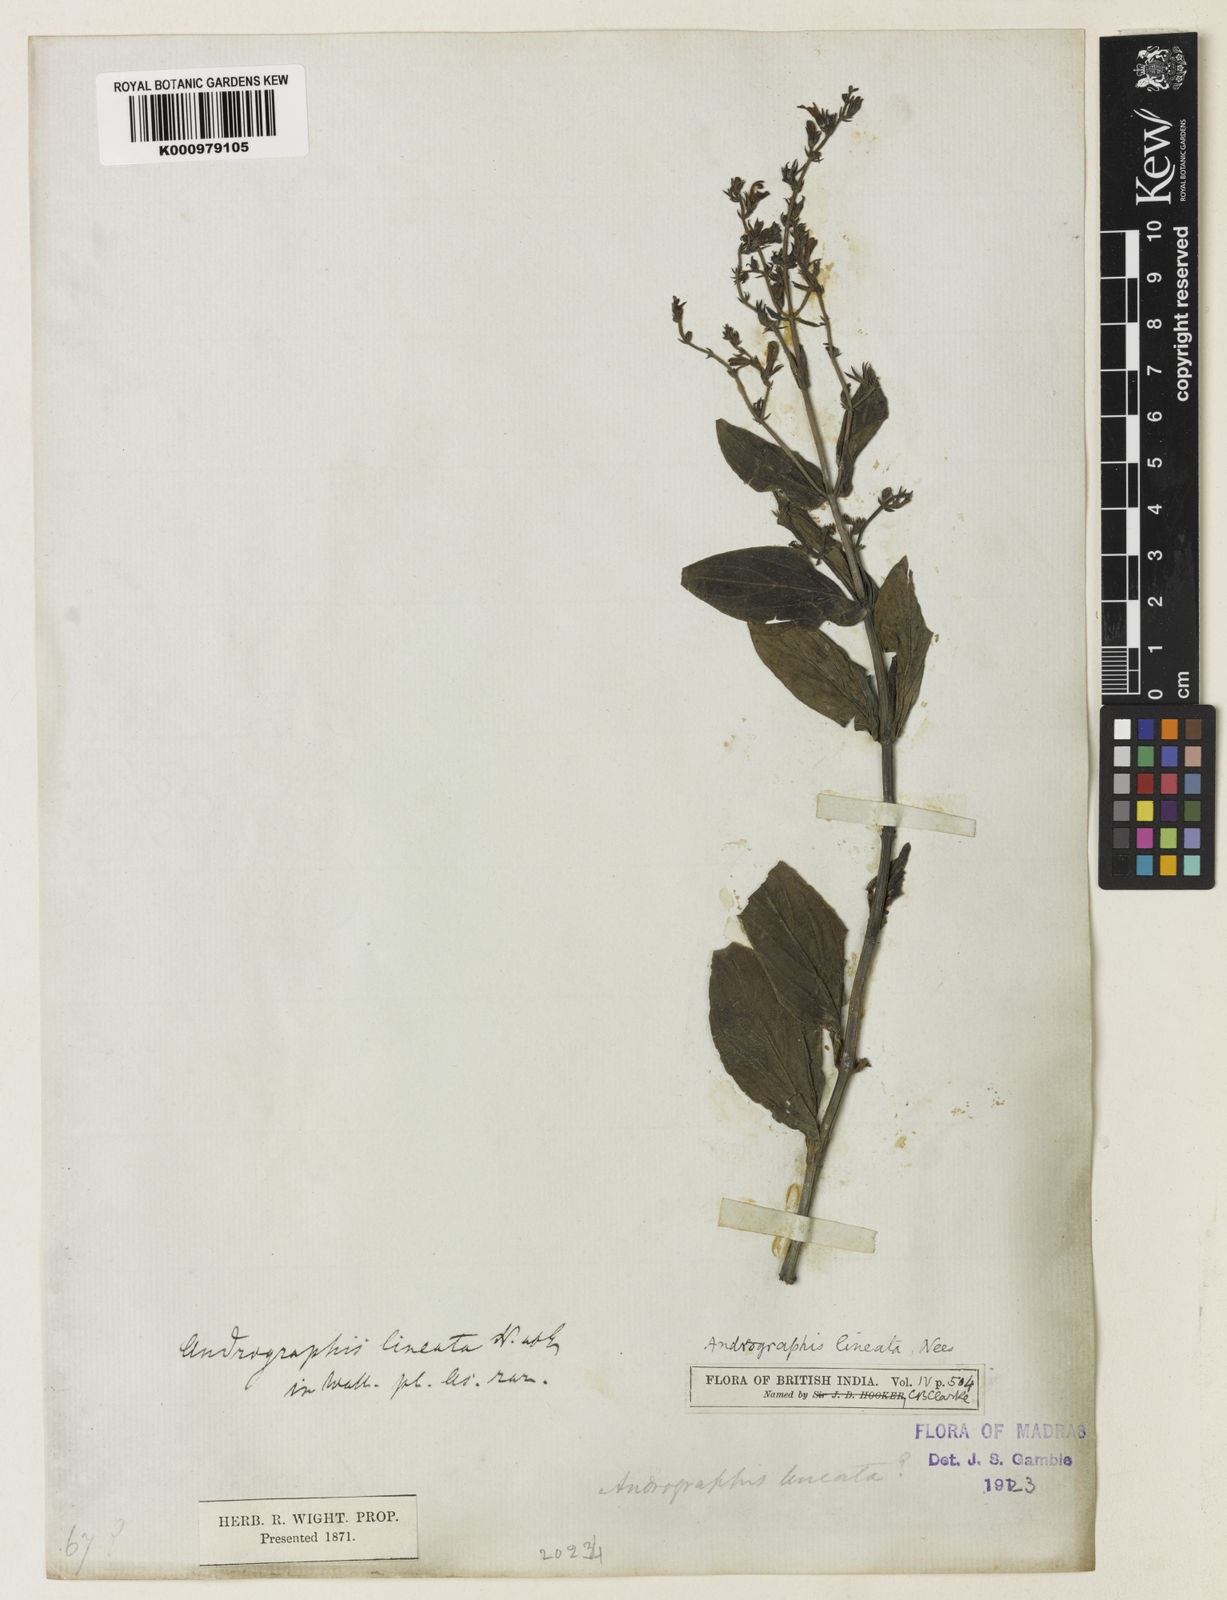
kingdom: Plantae
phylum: Tracheophyta
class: Magnoliopsida
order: Lamiales
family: Acanthaceae
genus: Andrographis
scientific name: Andrographis lineata
